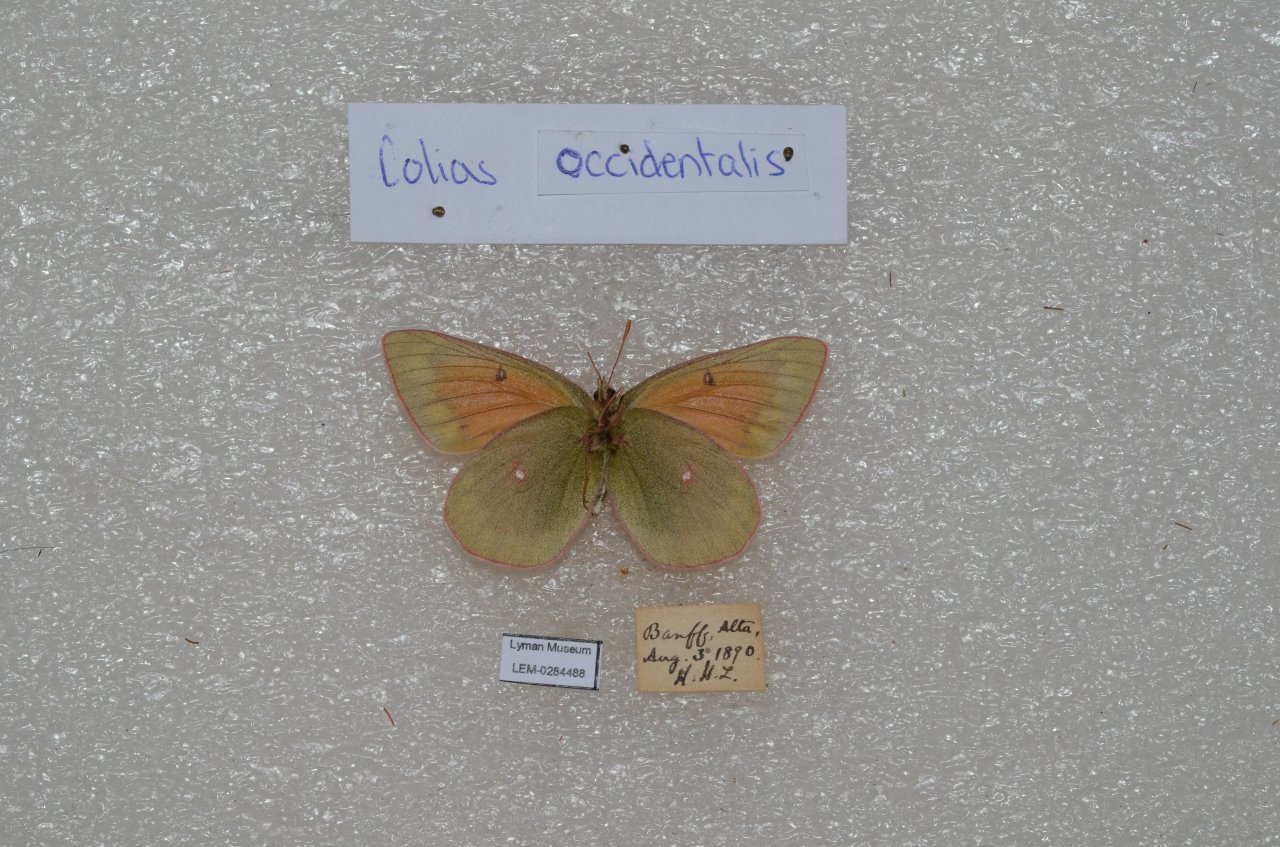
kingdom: Animalia
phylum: Arthropoda
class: Insecta
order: Lepidoptera
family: Pieridae
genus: Pontia
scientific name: Pontia occidentalis
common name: Western White
